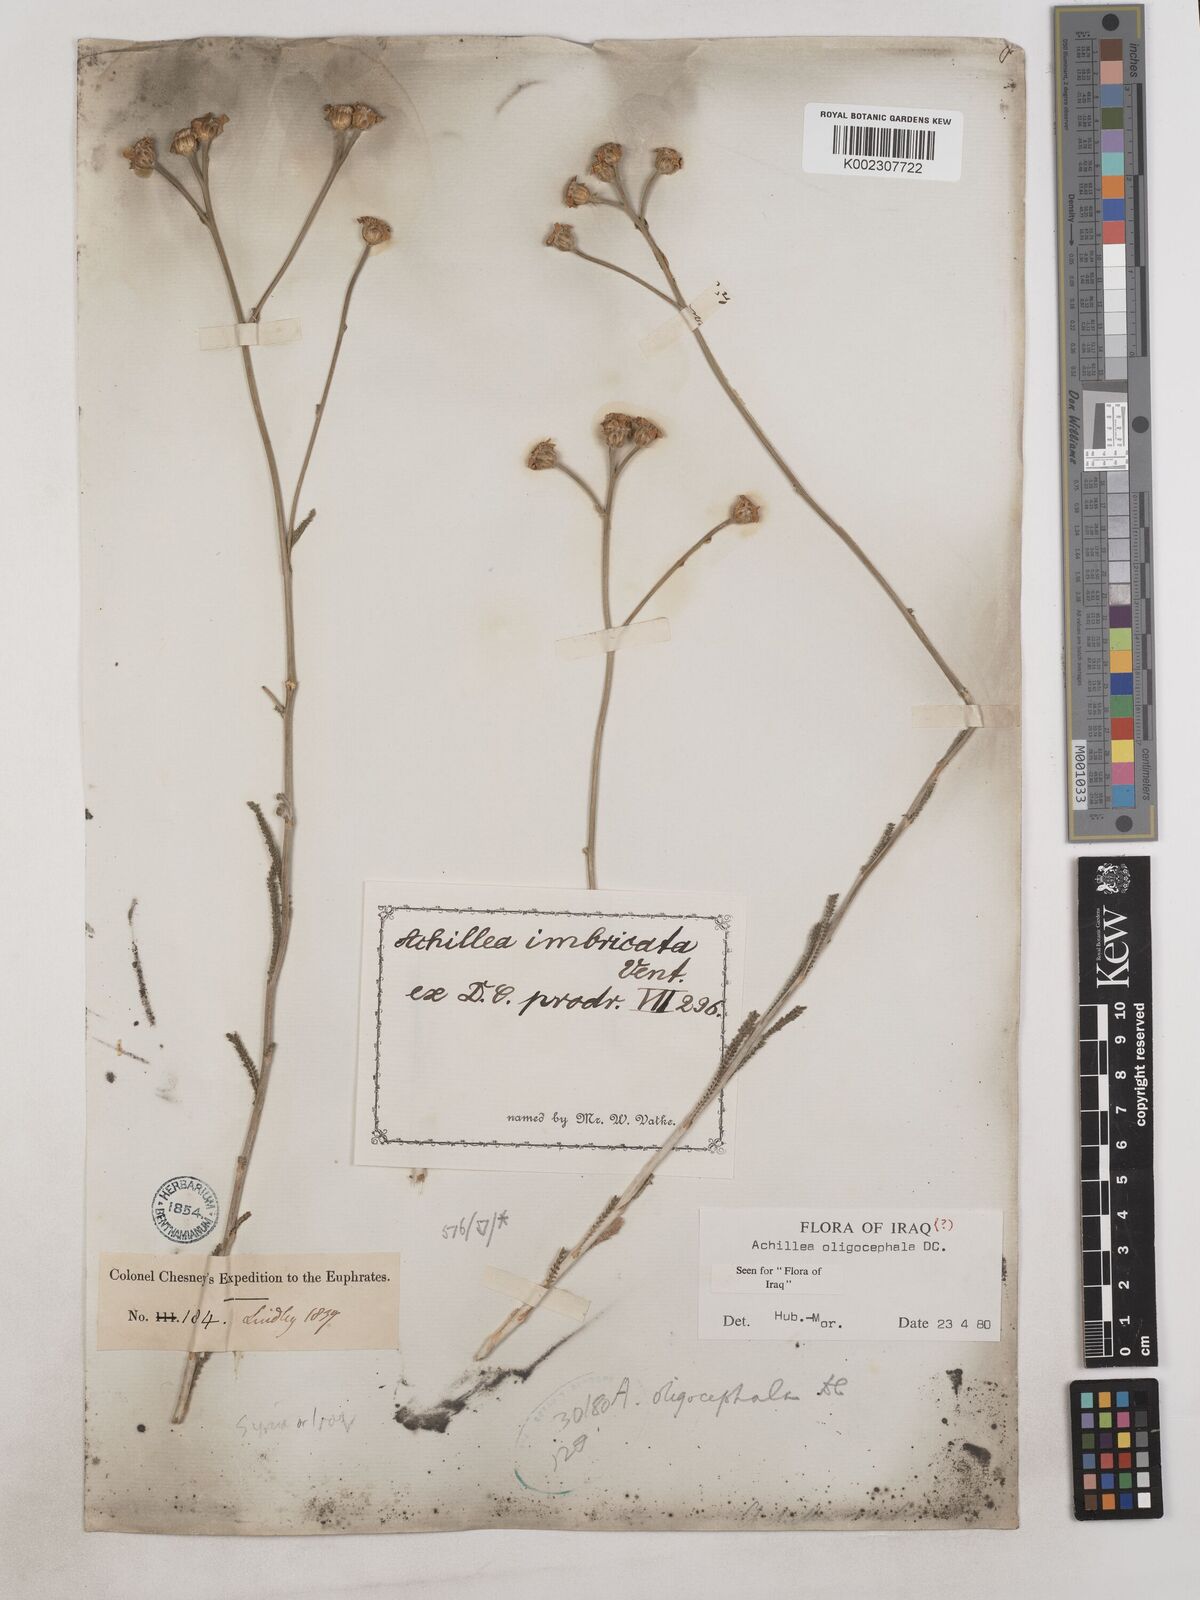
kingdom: Plantae
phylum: Tracheophyta
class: Magnoliopsida
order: Asterales
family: Asteraceae
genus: Achillea
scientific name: Achillea oligocephala
